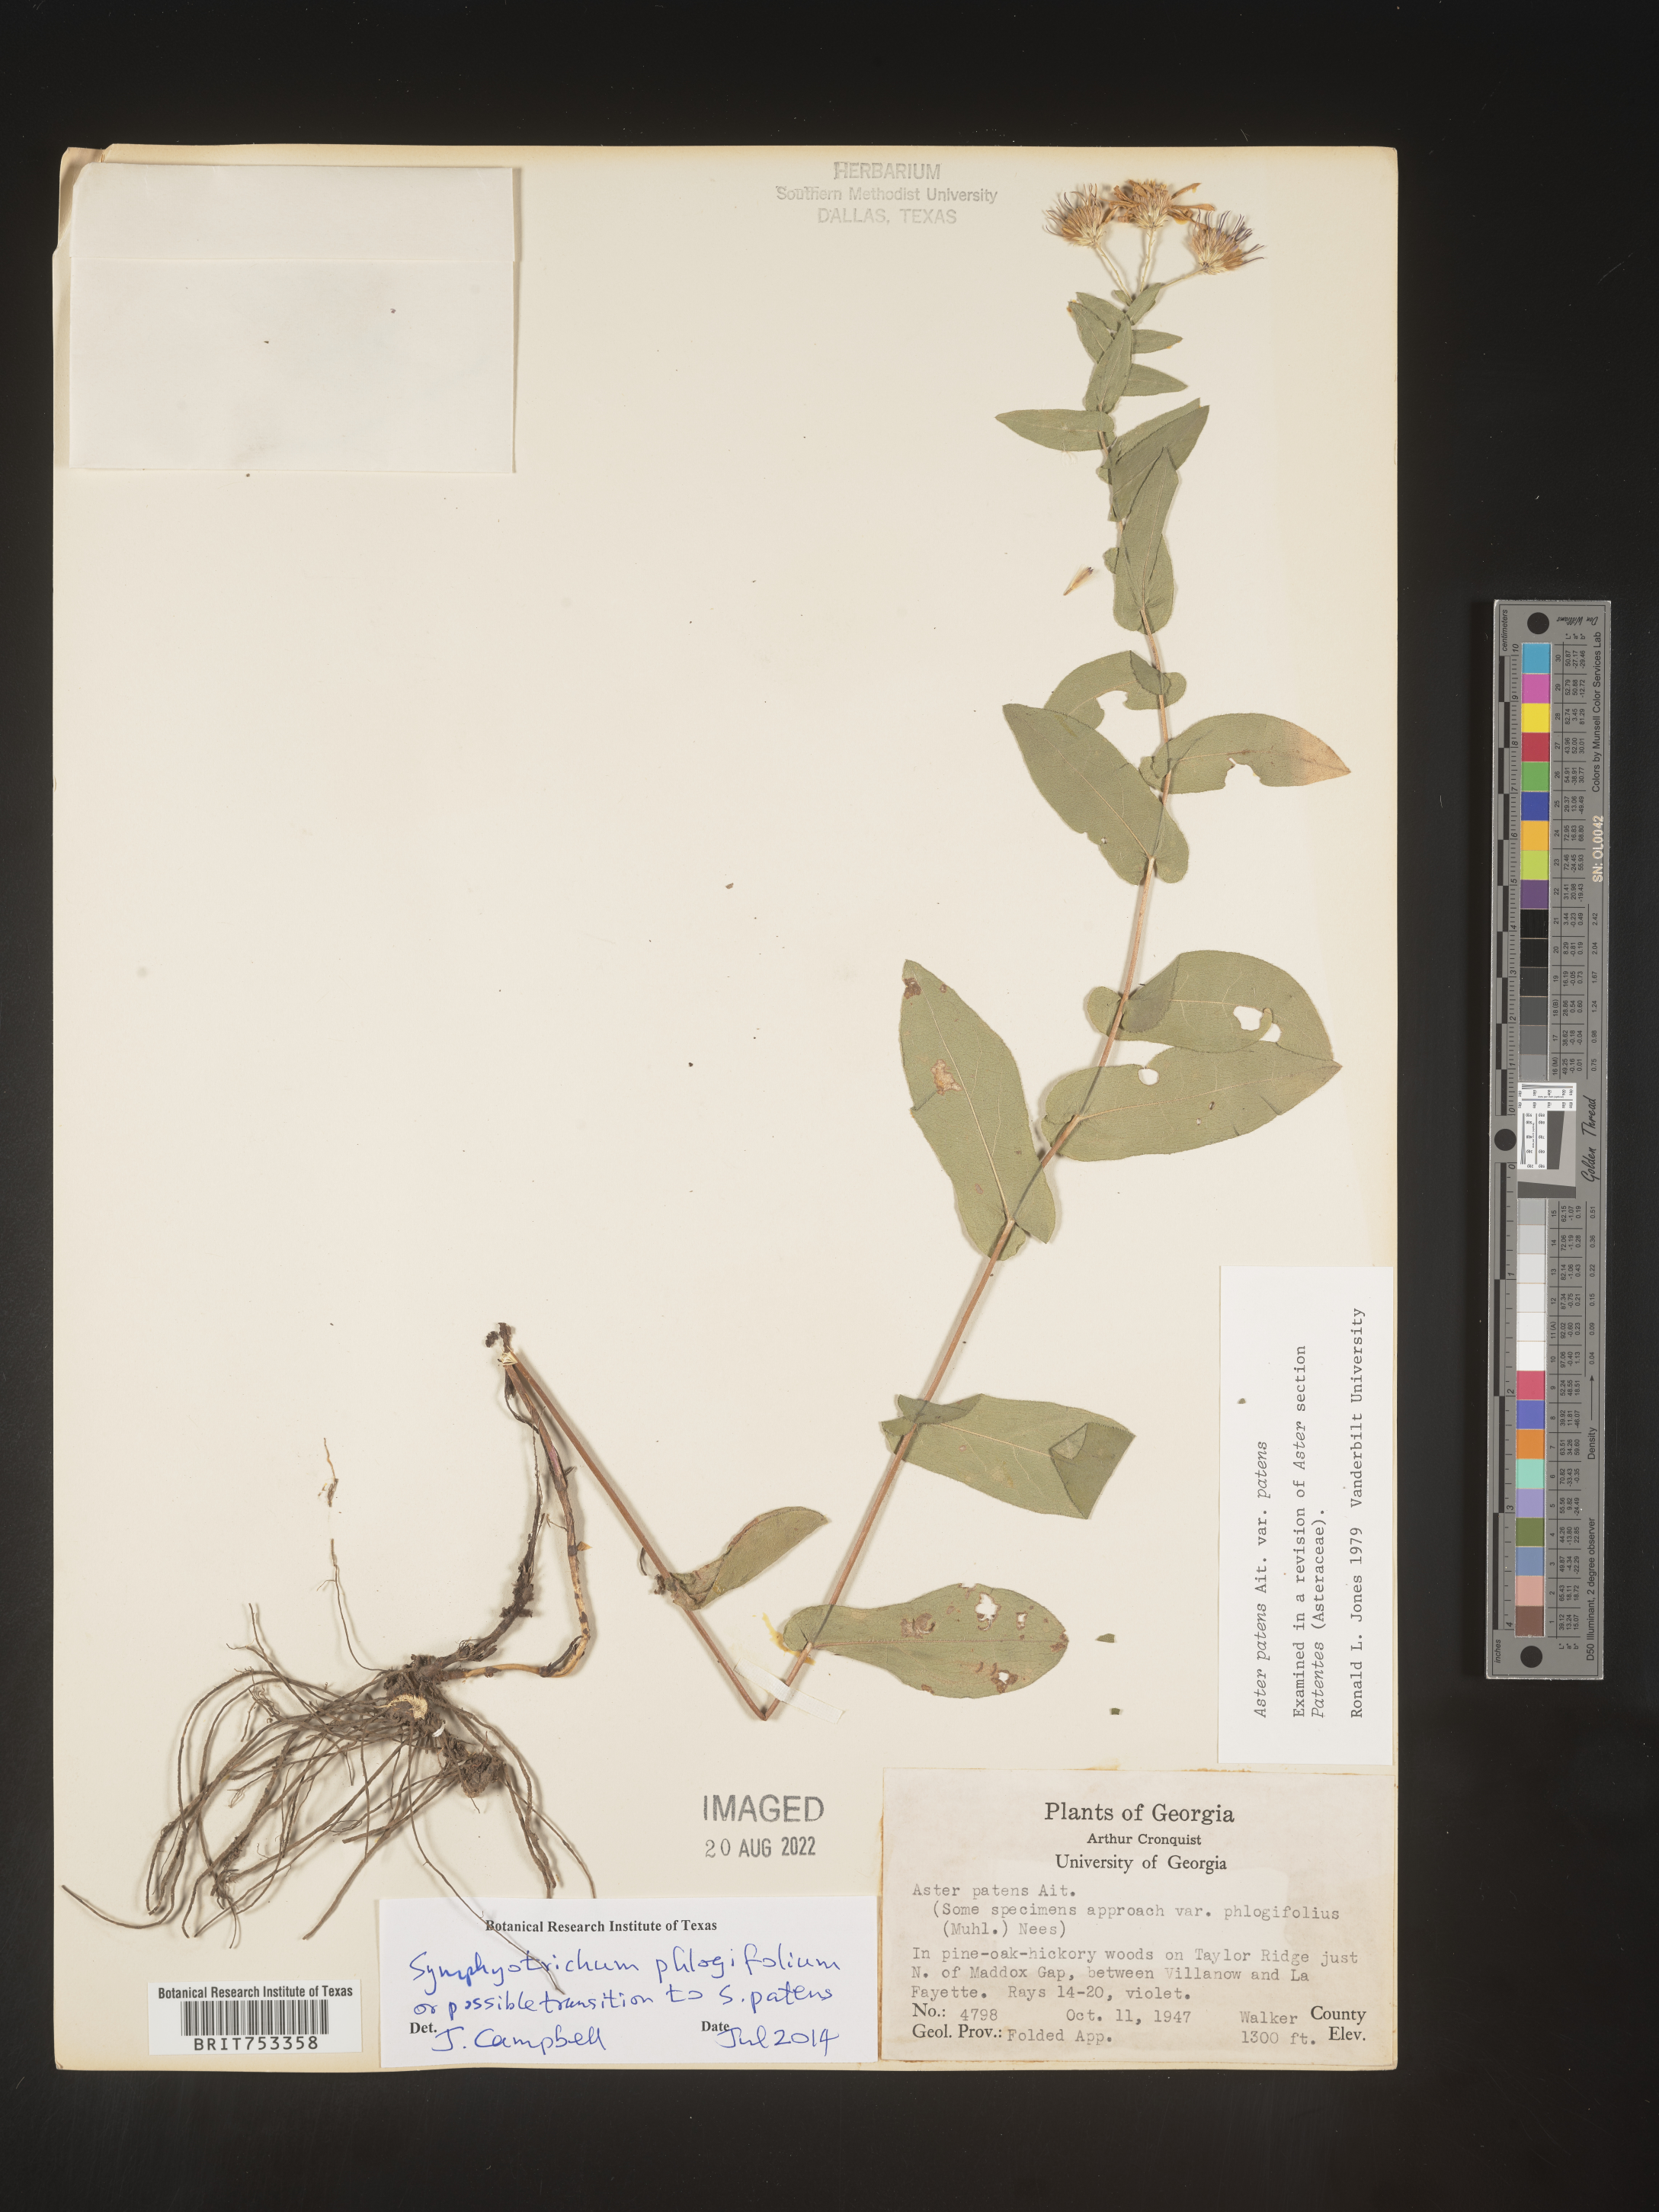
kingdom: Plantae
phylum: Tracheophyta
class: Magnoliopsida
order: Asterales
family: Asteraceae
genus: Symphyotrichum
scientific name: Symphyotrichum phlogifolium
